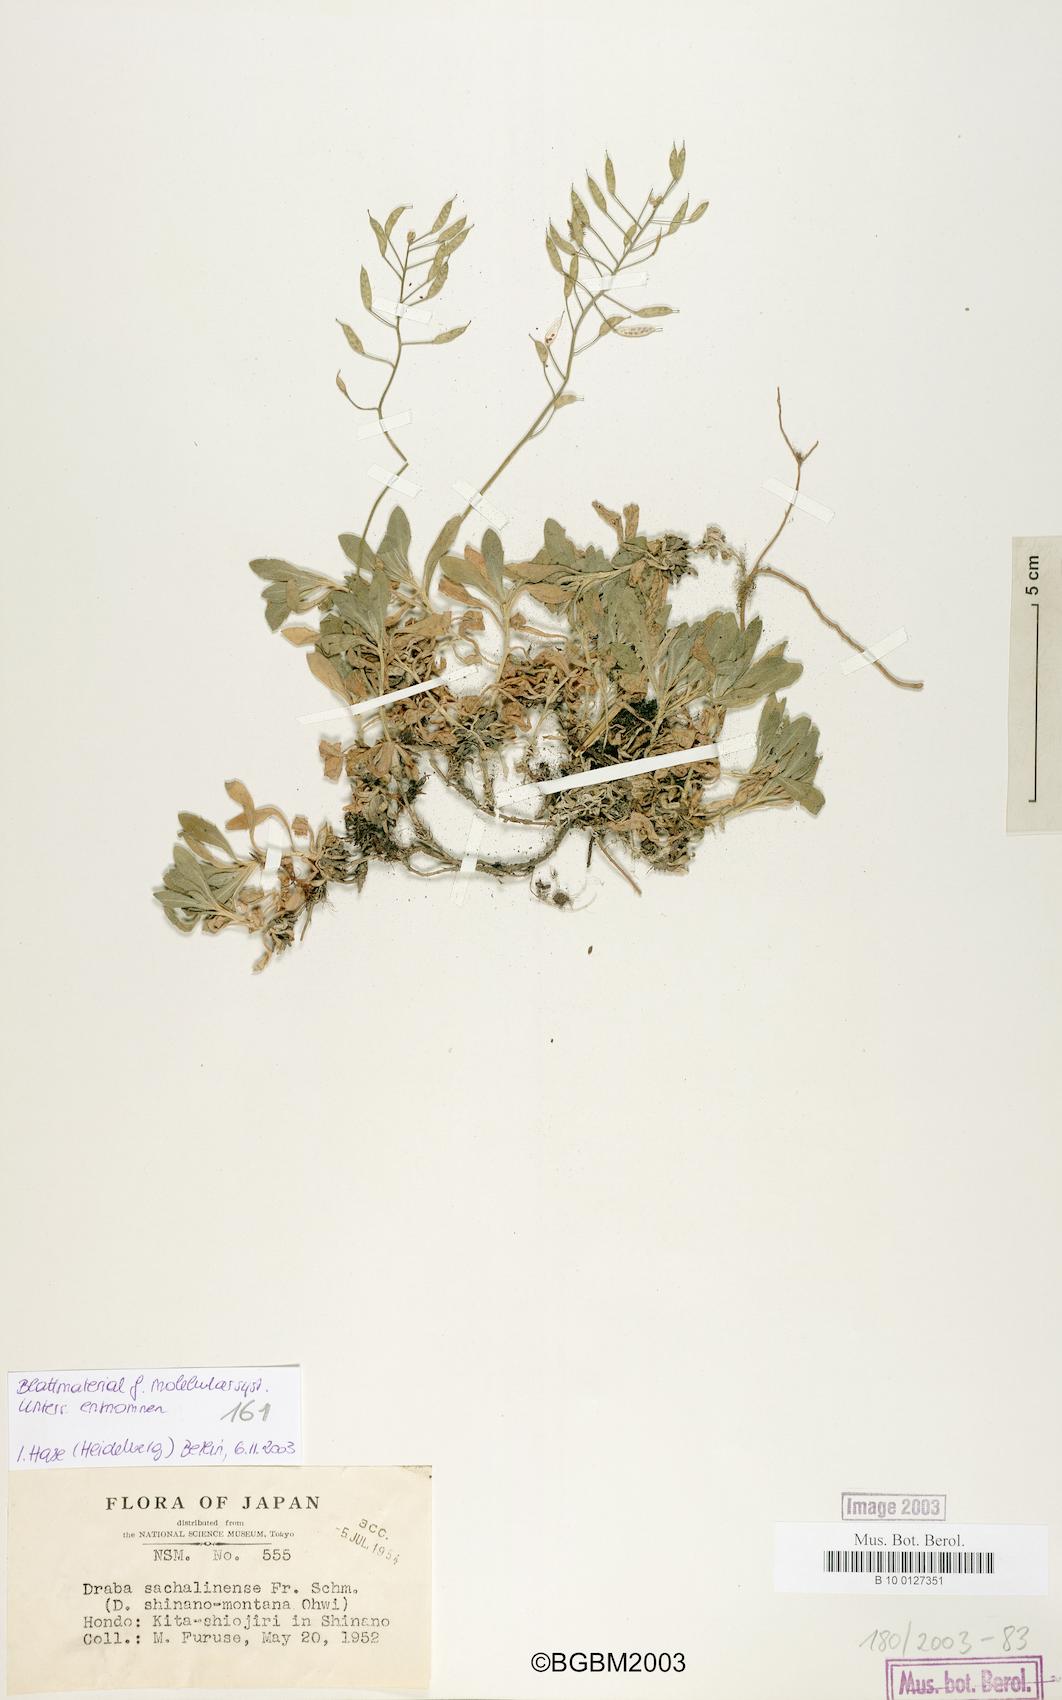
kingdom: Plantae
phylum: Tracheophyta
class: Magnoliopsida
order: Brassicales
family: Brassicaceae
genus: Draba
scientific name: Draba sachalinensis
